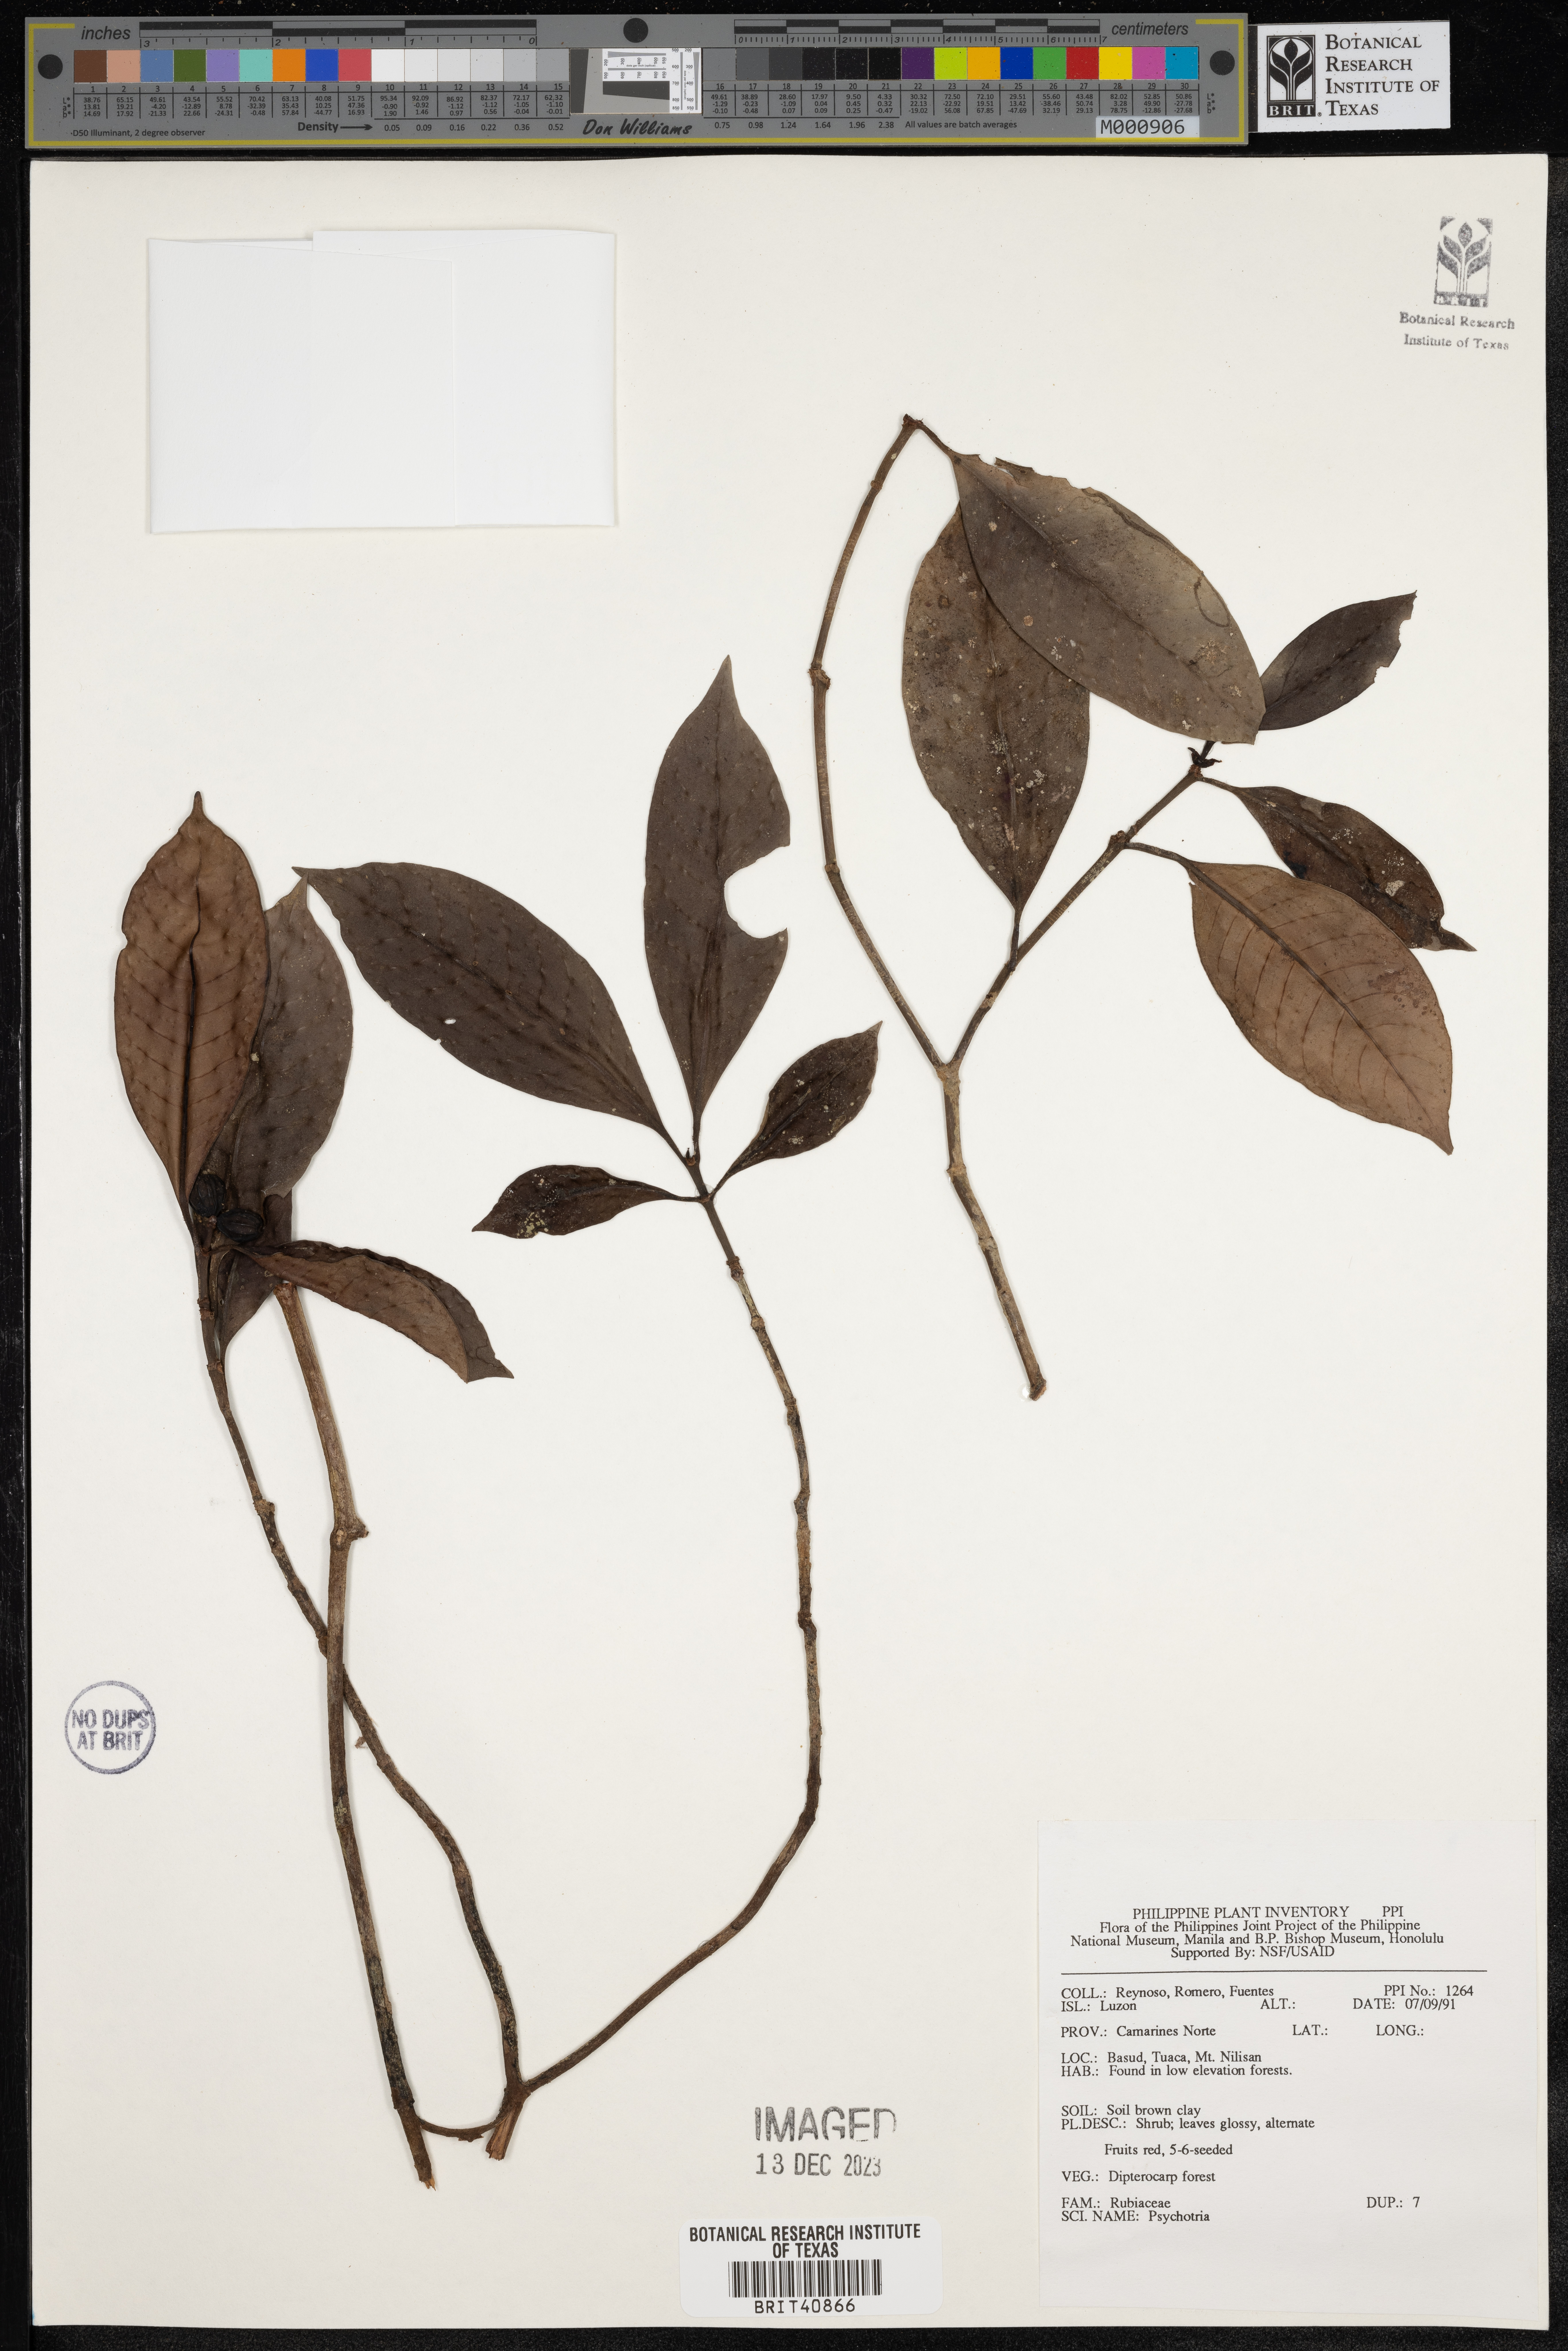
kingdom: Plantae
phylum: Tracheophyta
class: Magnoliopsida
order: Gentianales
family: Rubiaceae
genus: Psychotria
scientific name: Psychotria
